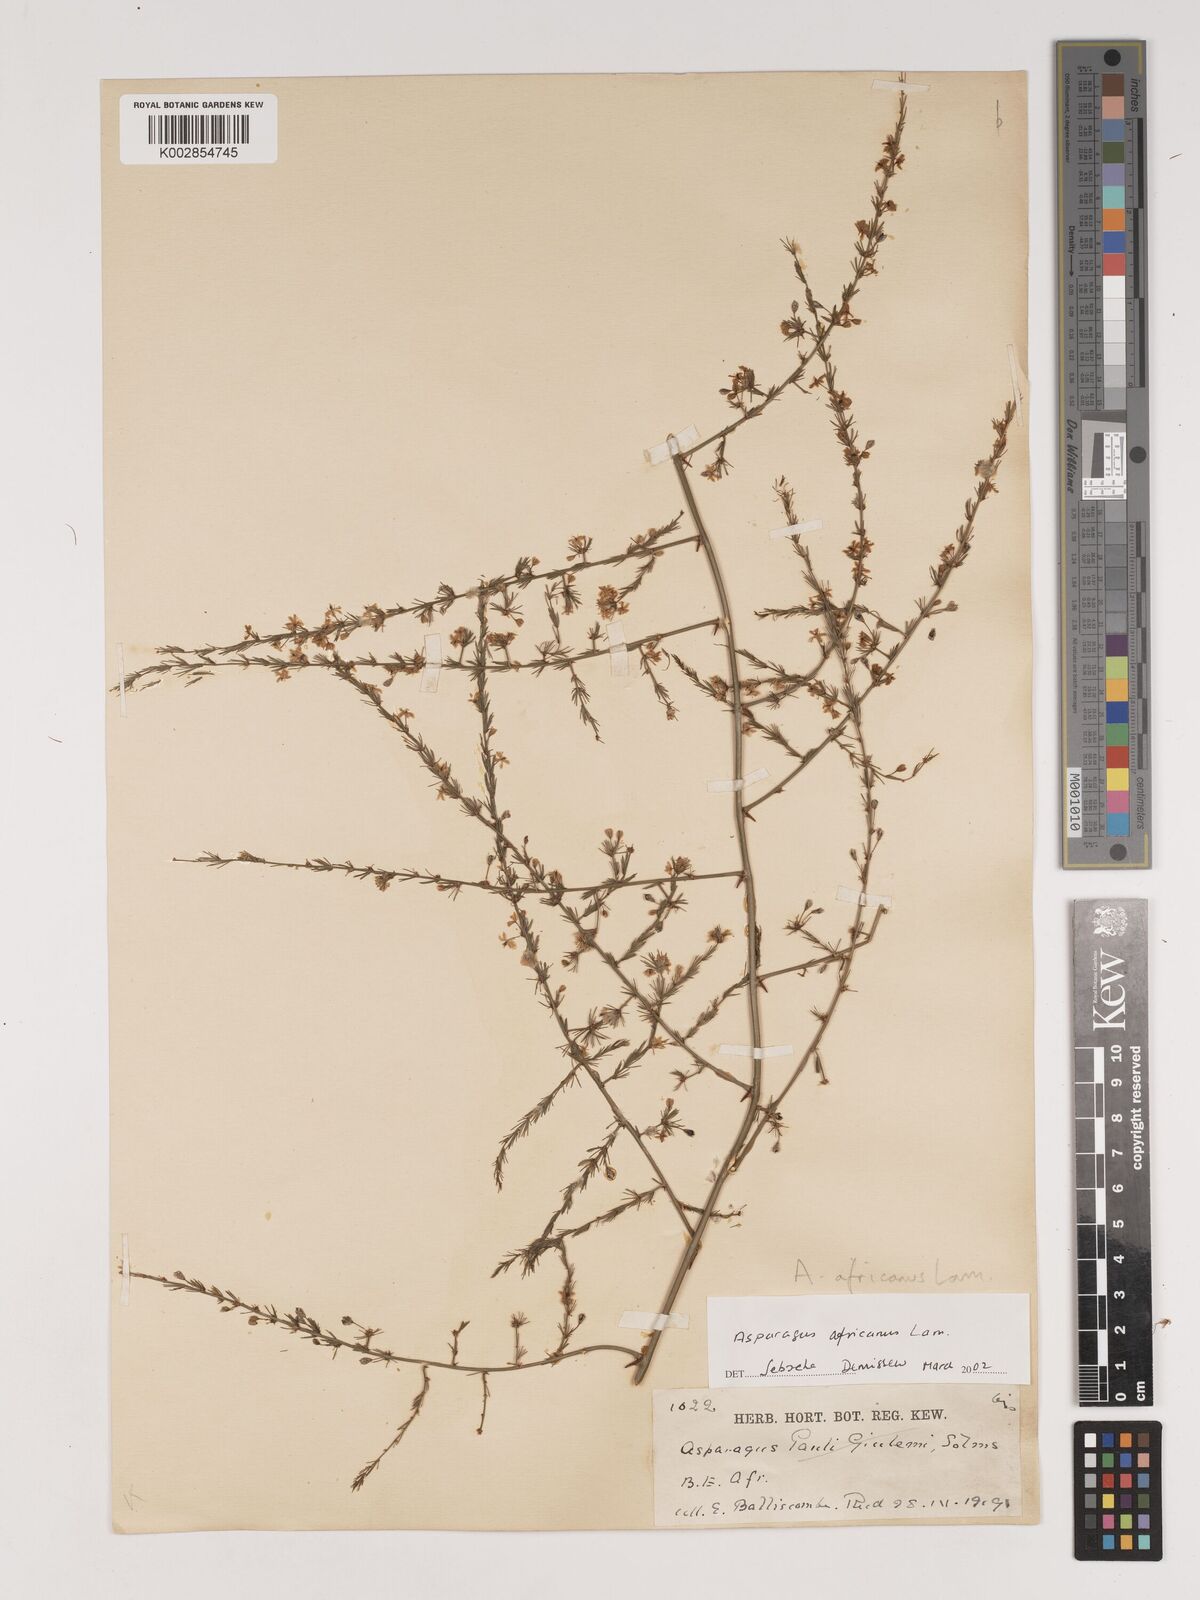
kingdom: Plantae
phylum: Tracheophyta
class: Liliopsida
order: Asparagales
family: Asparagaceae
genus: Asparagus
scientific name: Asparagus africanus
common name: Asparagus-fern
